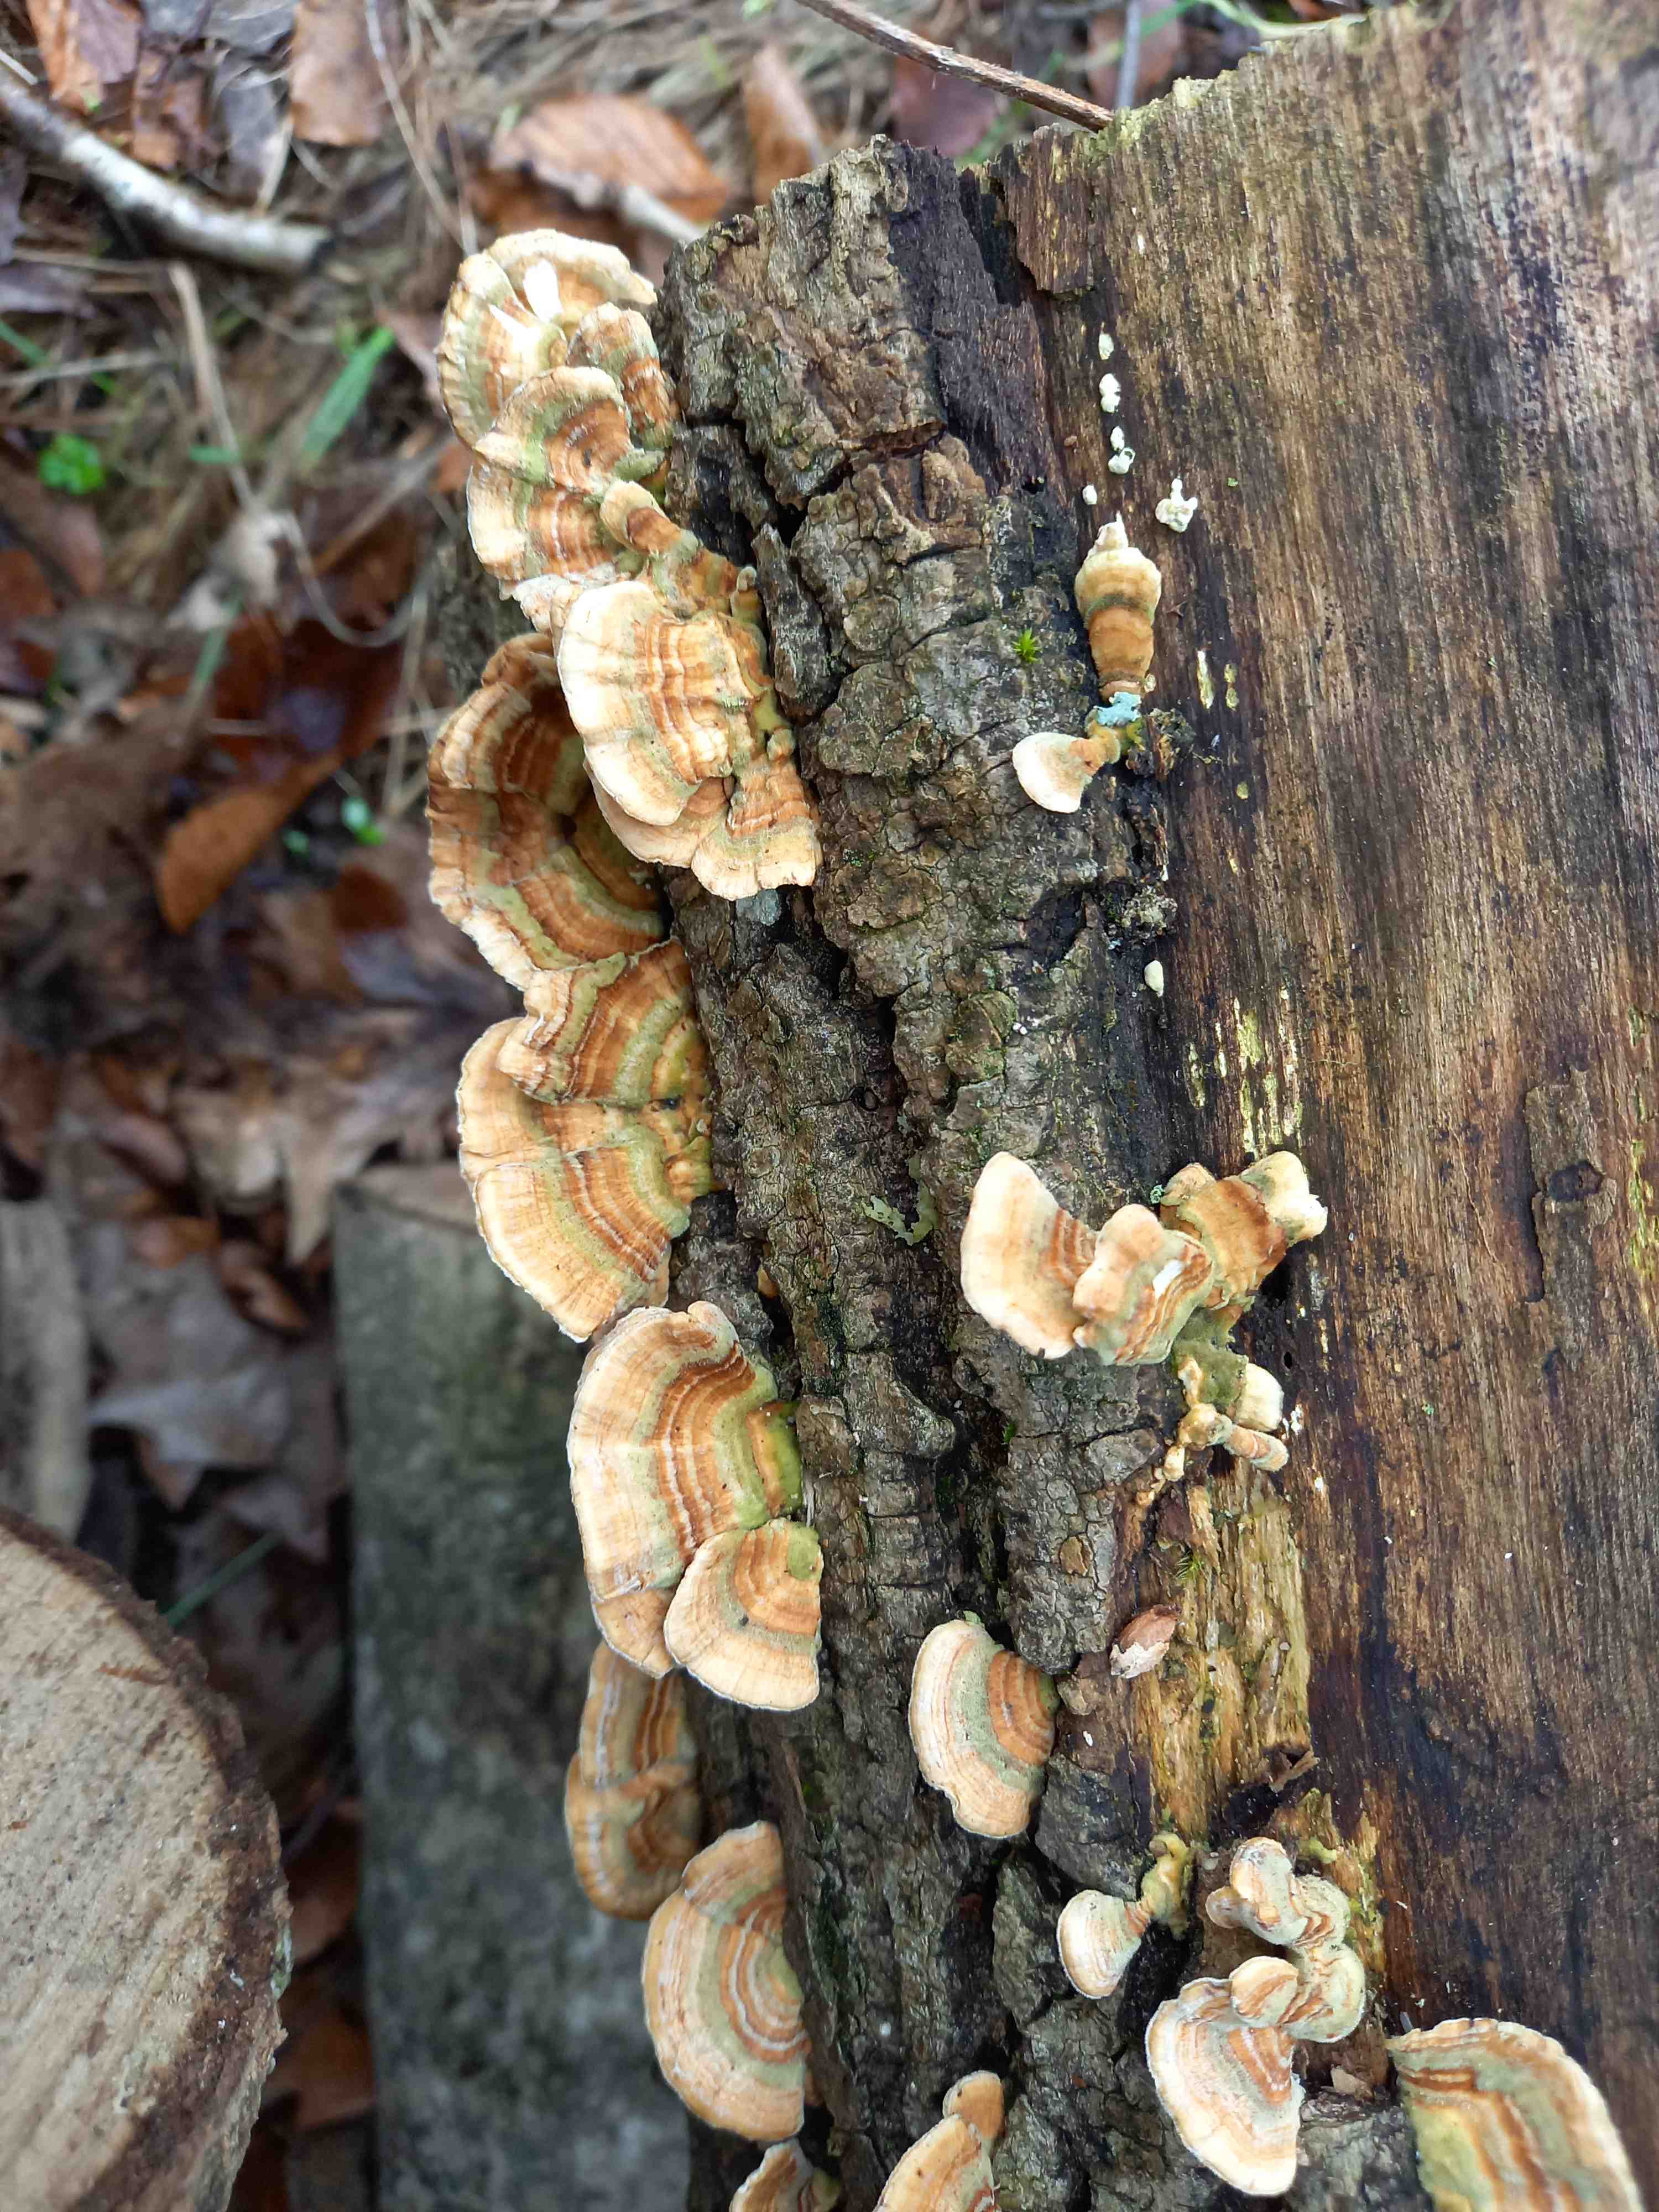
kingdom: Fungi
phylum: Basidiomycota
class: Agaricomycetes
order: Polyporales
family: Polyporaceae
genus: Trametes
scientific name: Trametes ochracea
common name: bæltet læderporesvamp
